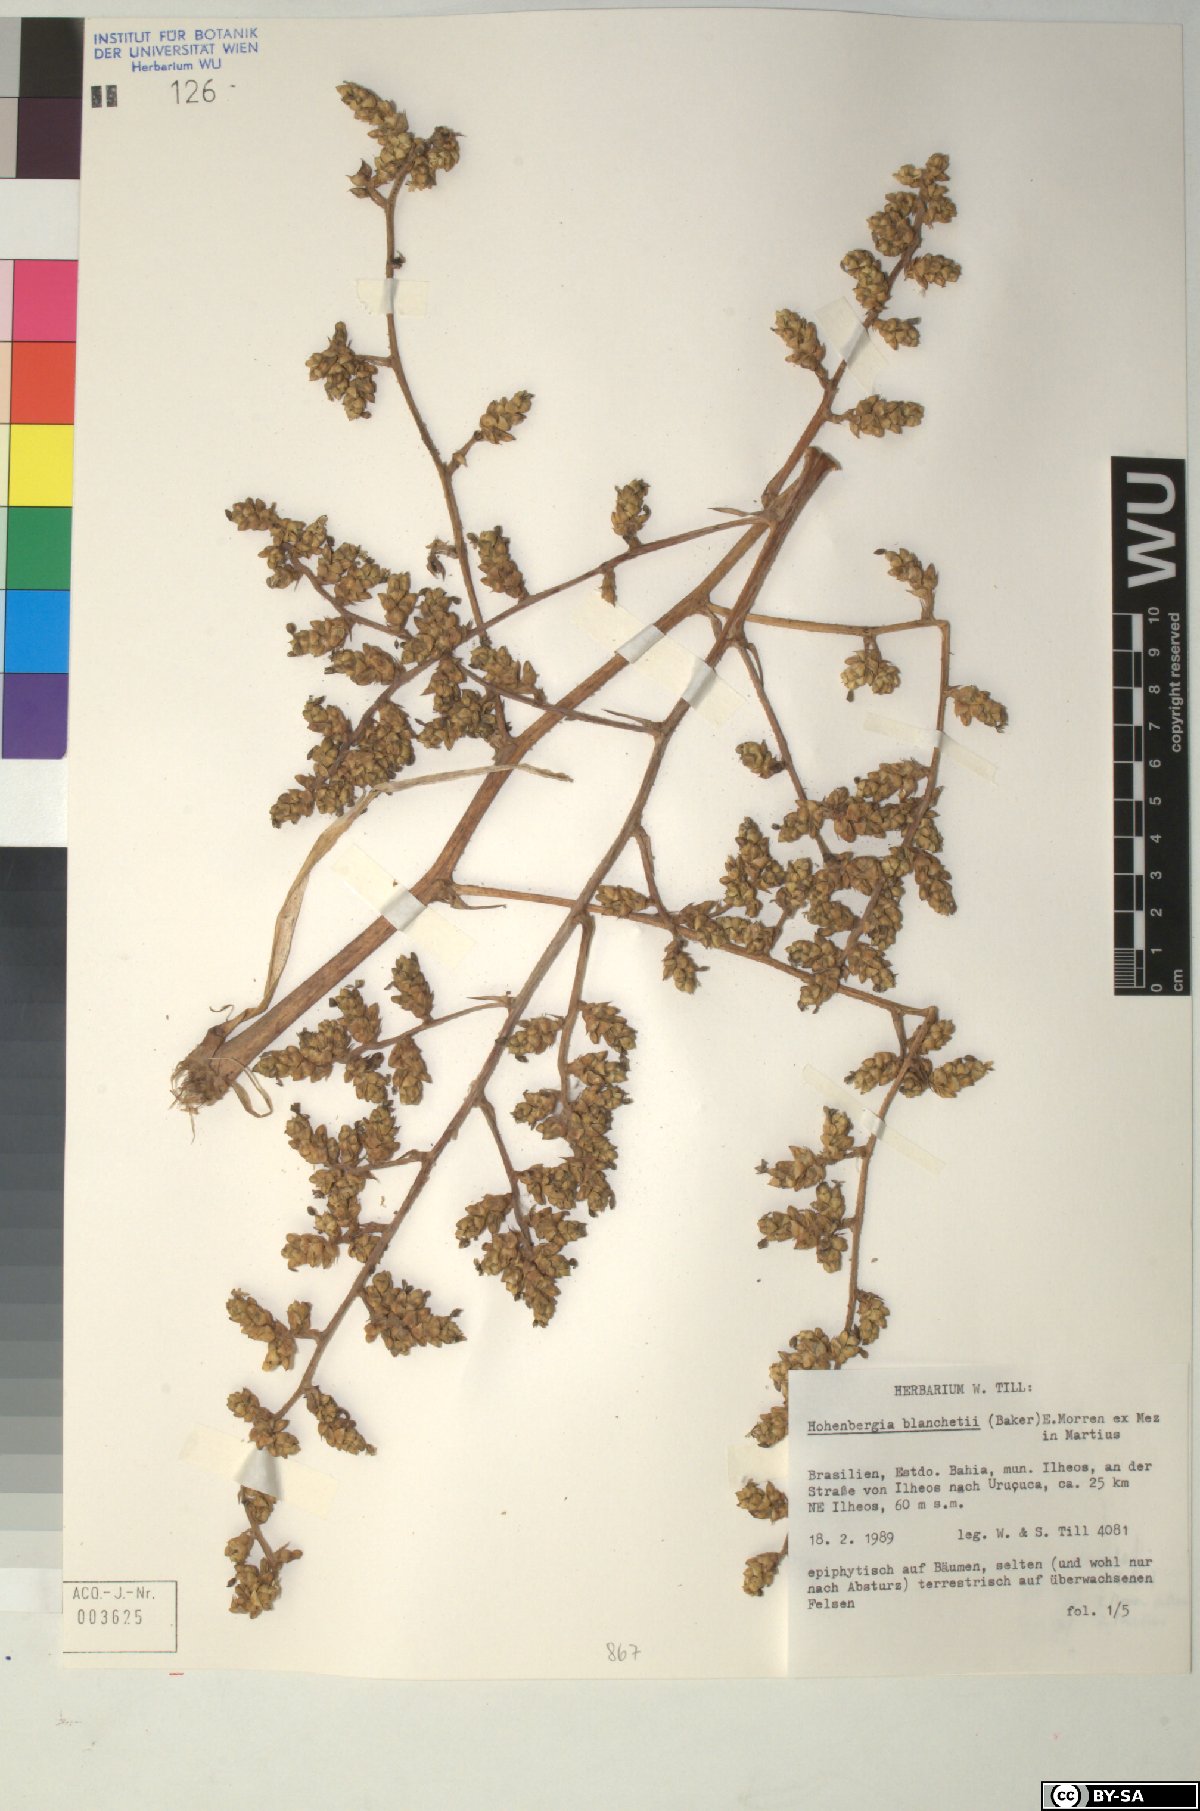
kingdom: Plantae
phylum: Tracheophyta
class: Liliopsida
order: Poales
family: Bromeliaceae
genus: Hohenbergia
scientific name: Hohenbergia blanchetii
